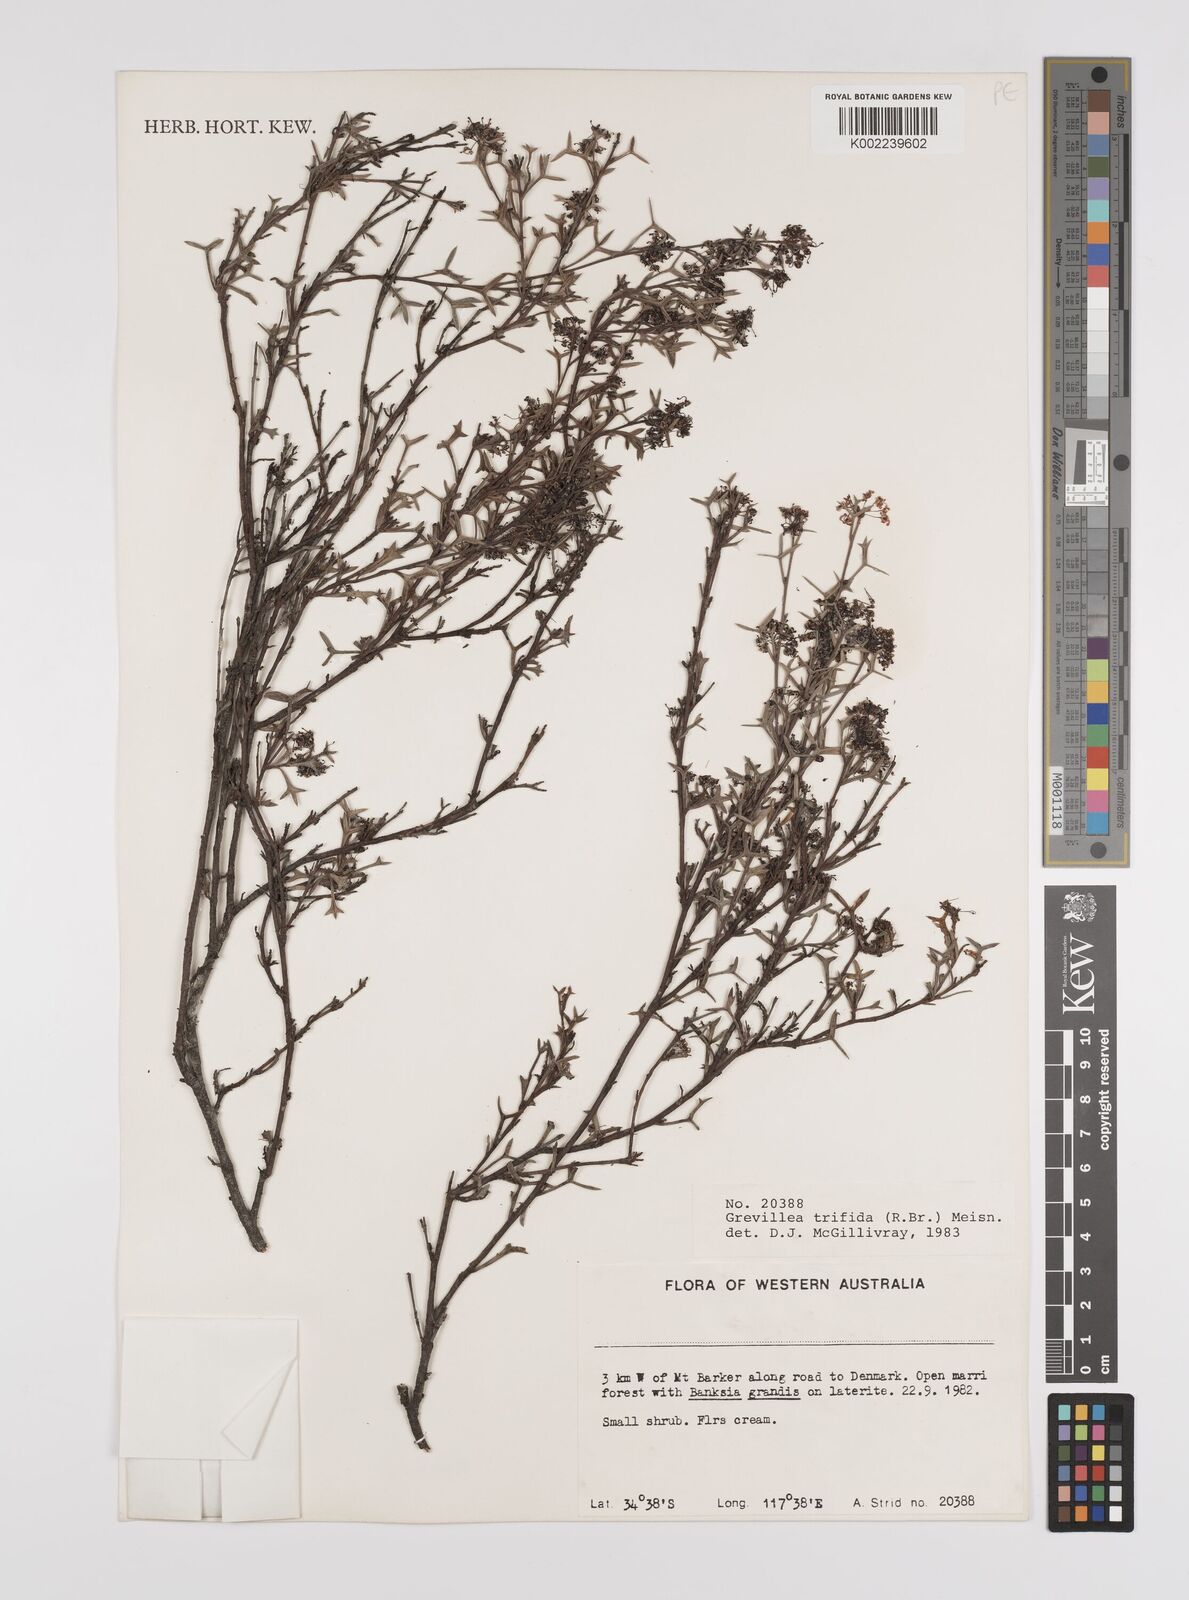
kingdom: Plantae
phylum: Tracheophyta
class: Magnoliopsida
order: Proteales
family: Proteaceae
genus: Grevillea
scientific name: Grevillea trifida
